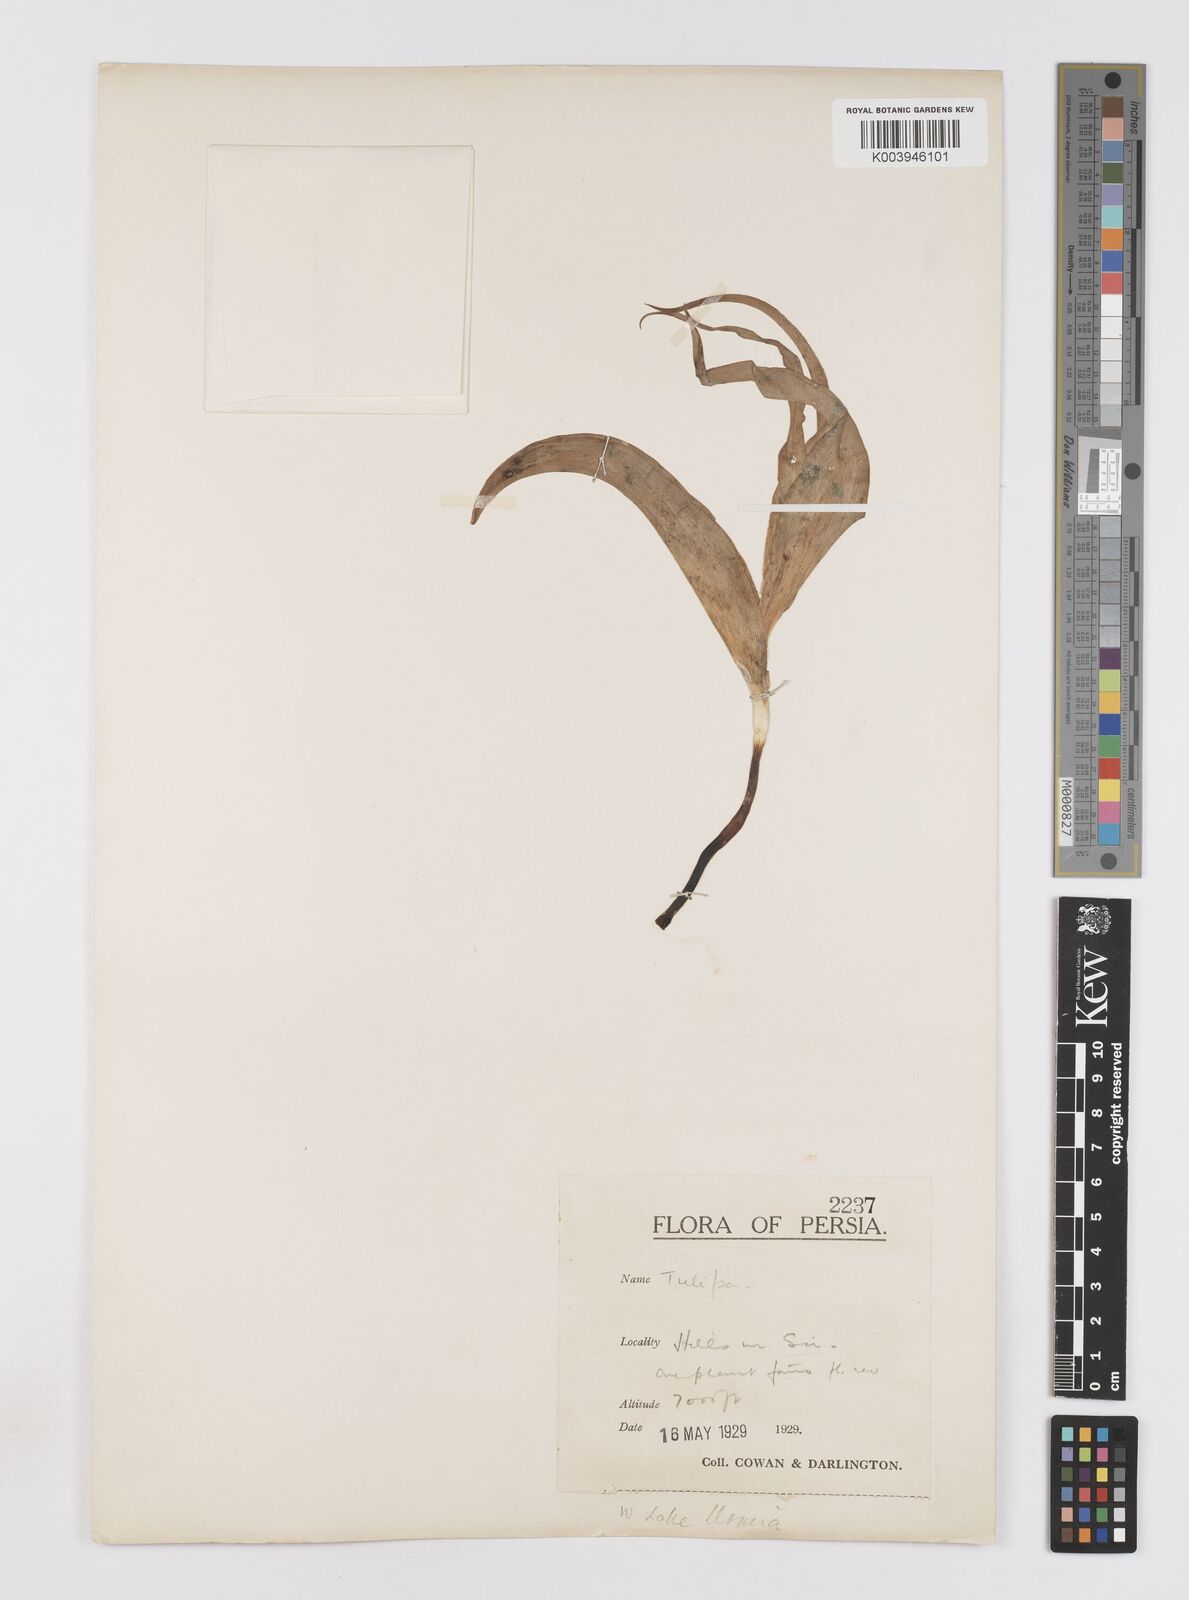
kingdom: Plantae
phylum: Tracheophyta
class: Liliopsida
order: Liliales
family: Liliaceae
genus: Tulipa
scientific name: Tulipa systola
